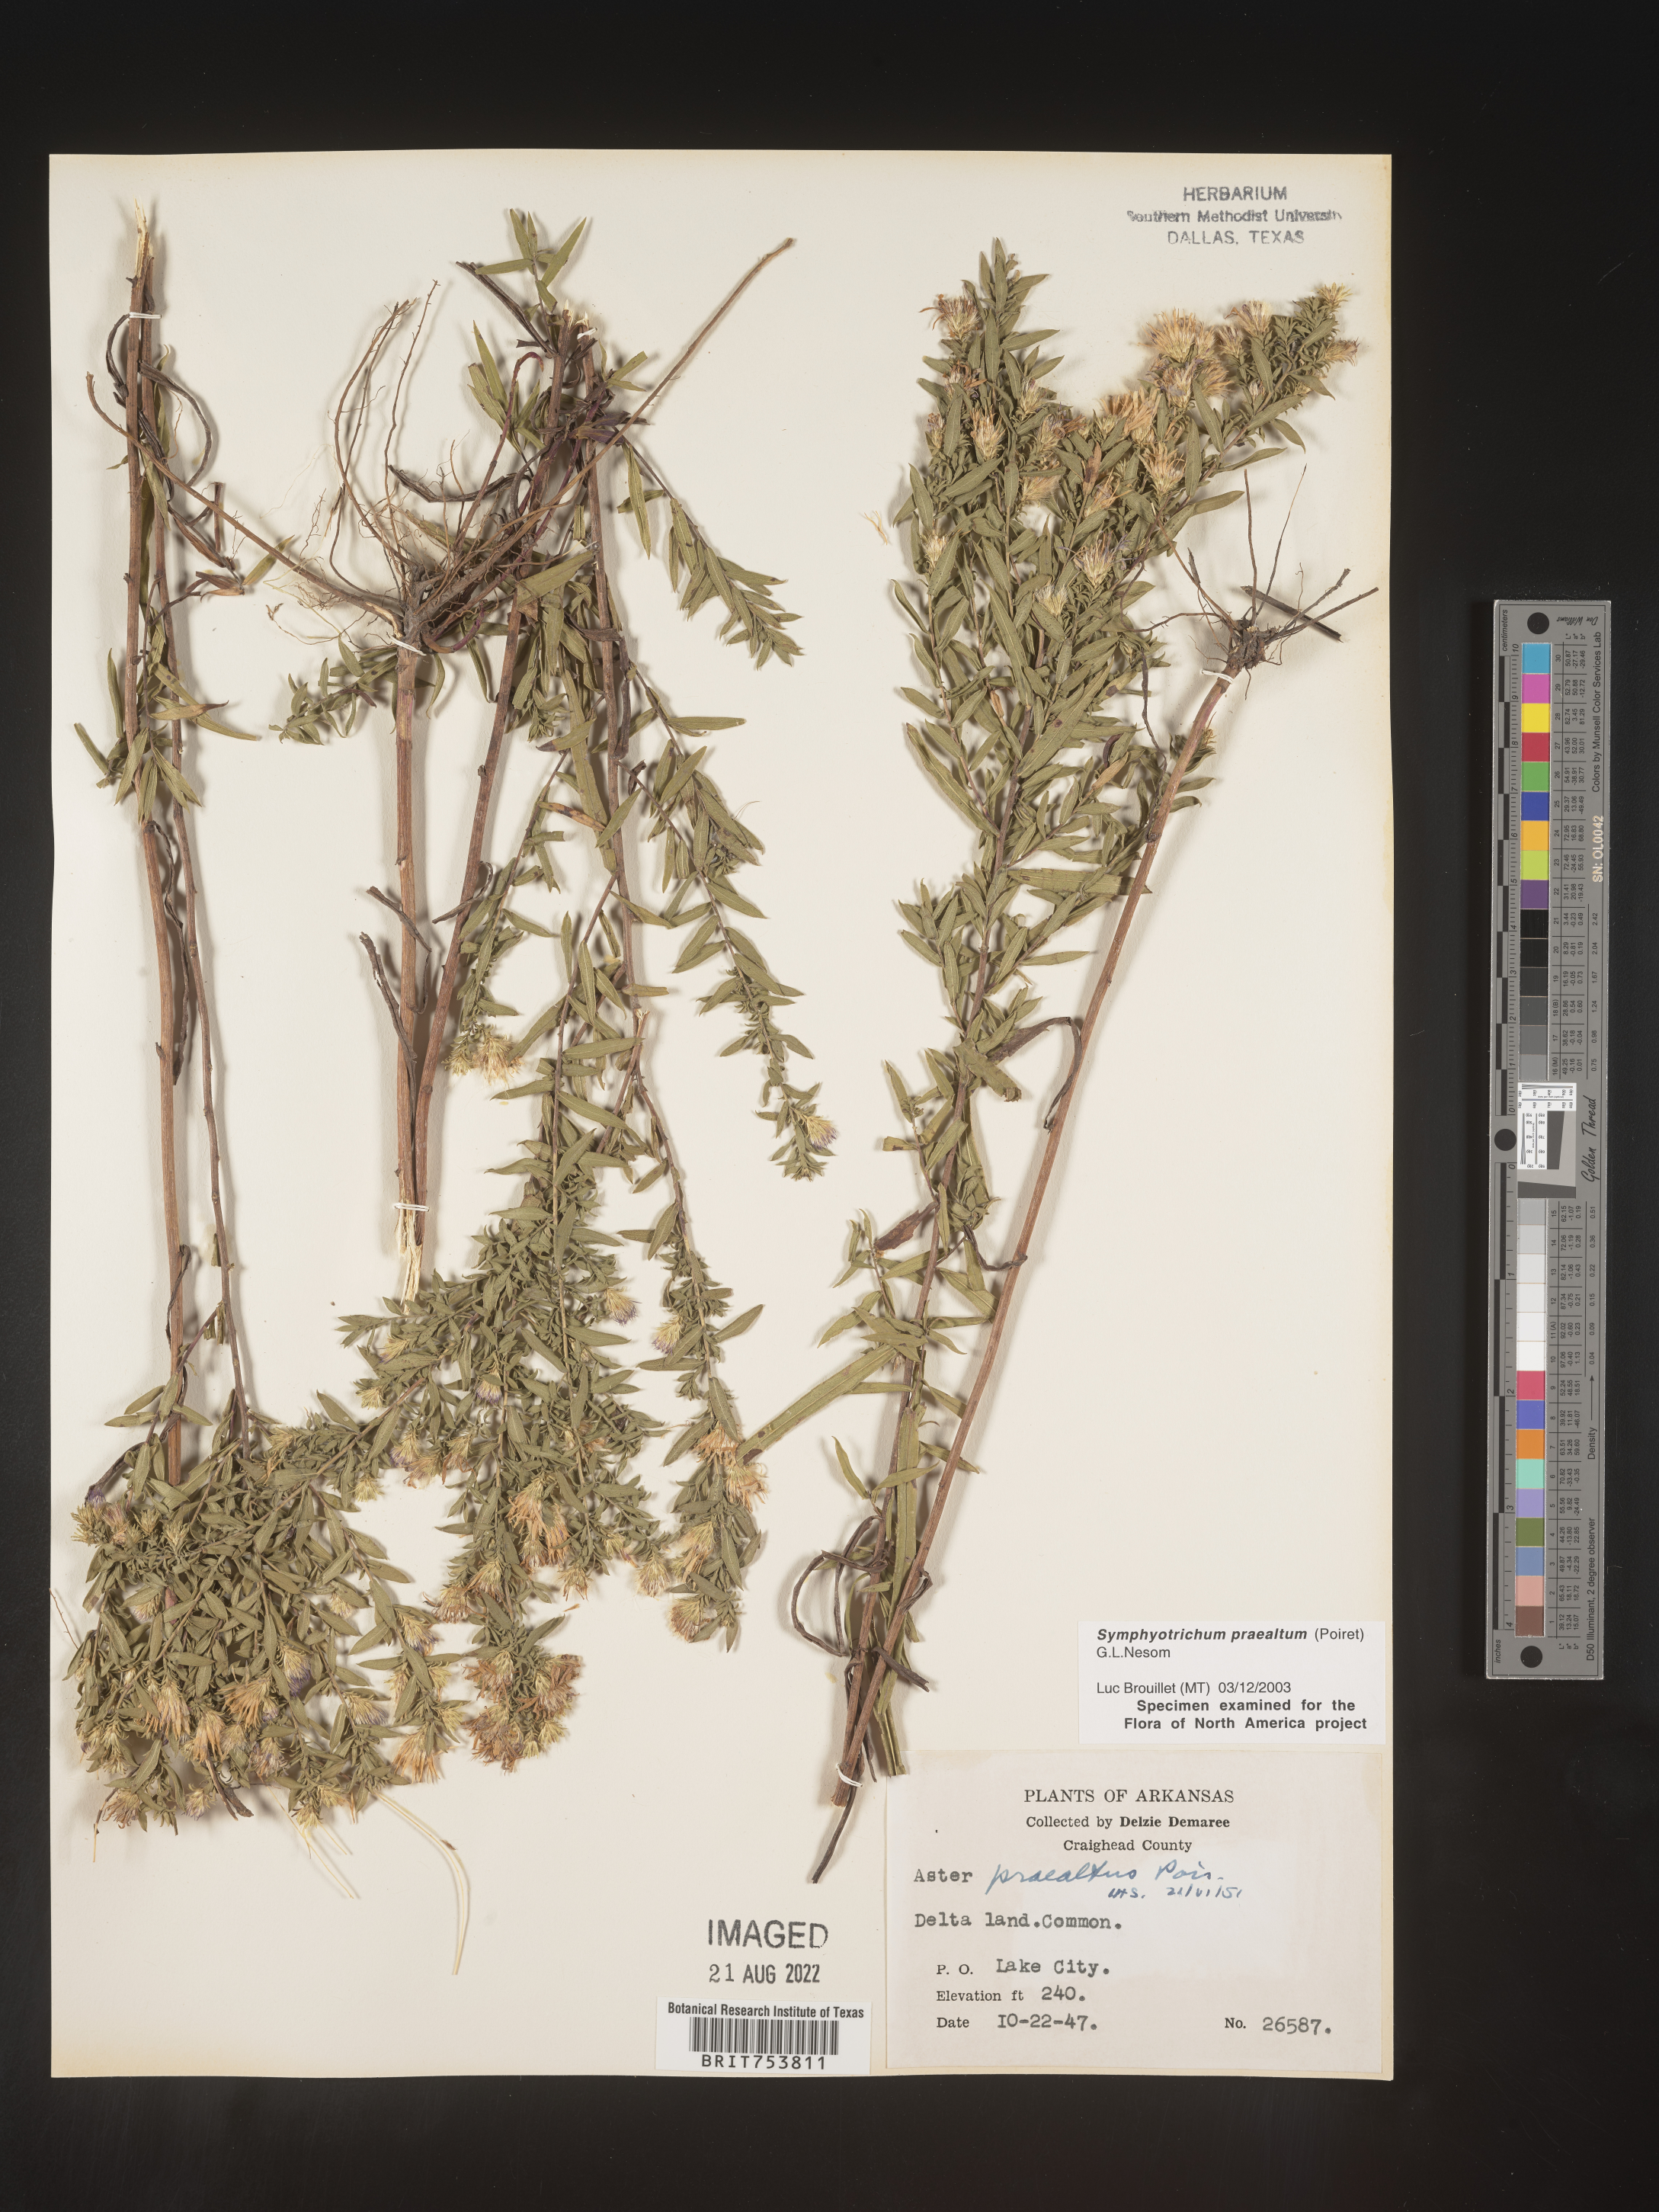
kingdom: Plantae
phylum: Tracheophyta
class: Magnoliopsida
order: Asterales
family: Asteraceae
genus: Symphyotrichum
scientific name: Symphyotrichum praealtum
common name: Willow aster
